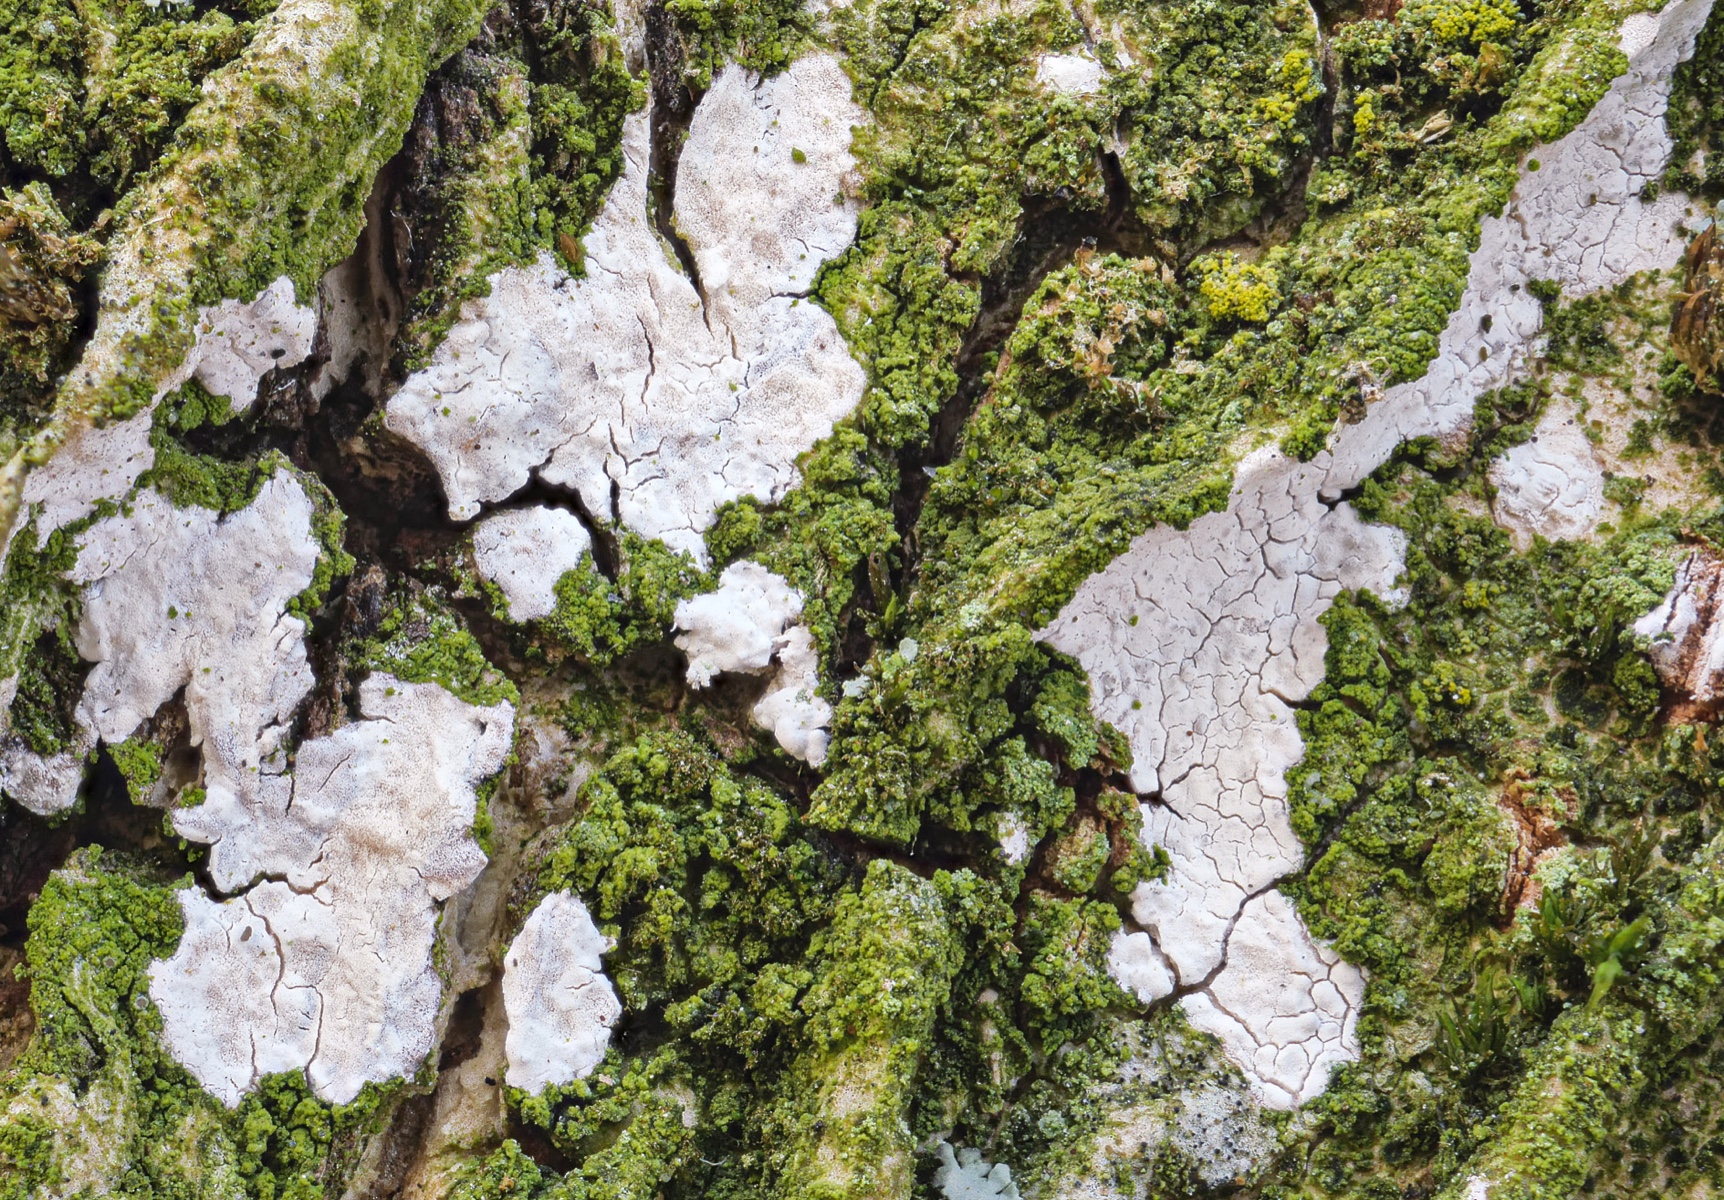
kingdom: Fungi
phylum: Basidiomycota
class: Agaricomycetes
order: Agaricales
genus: Dendrothele
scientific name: Dendrothele acerina
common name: navr-kalkplet
